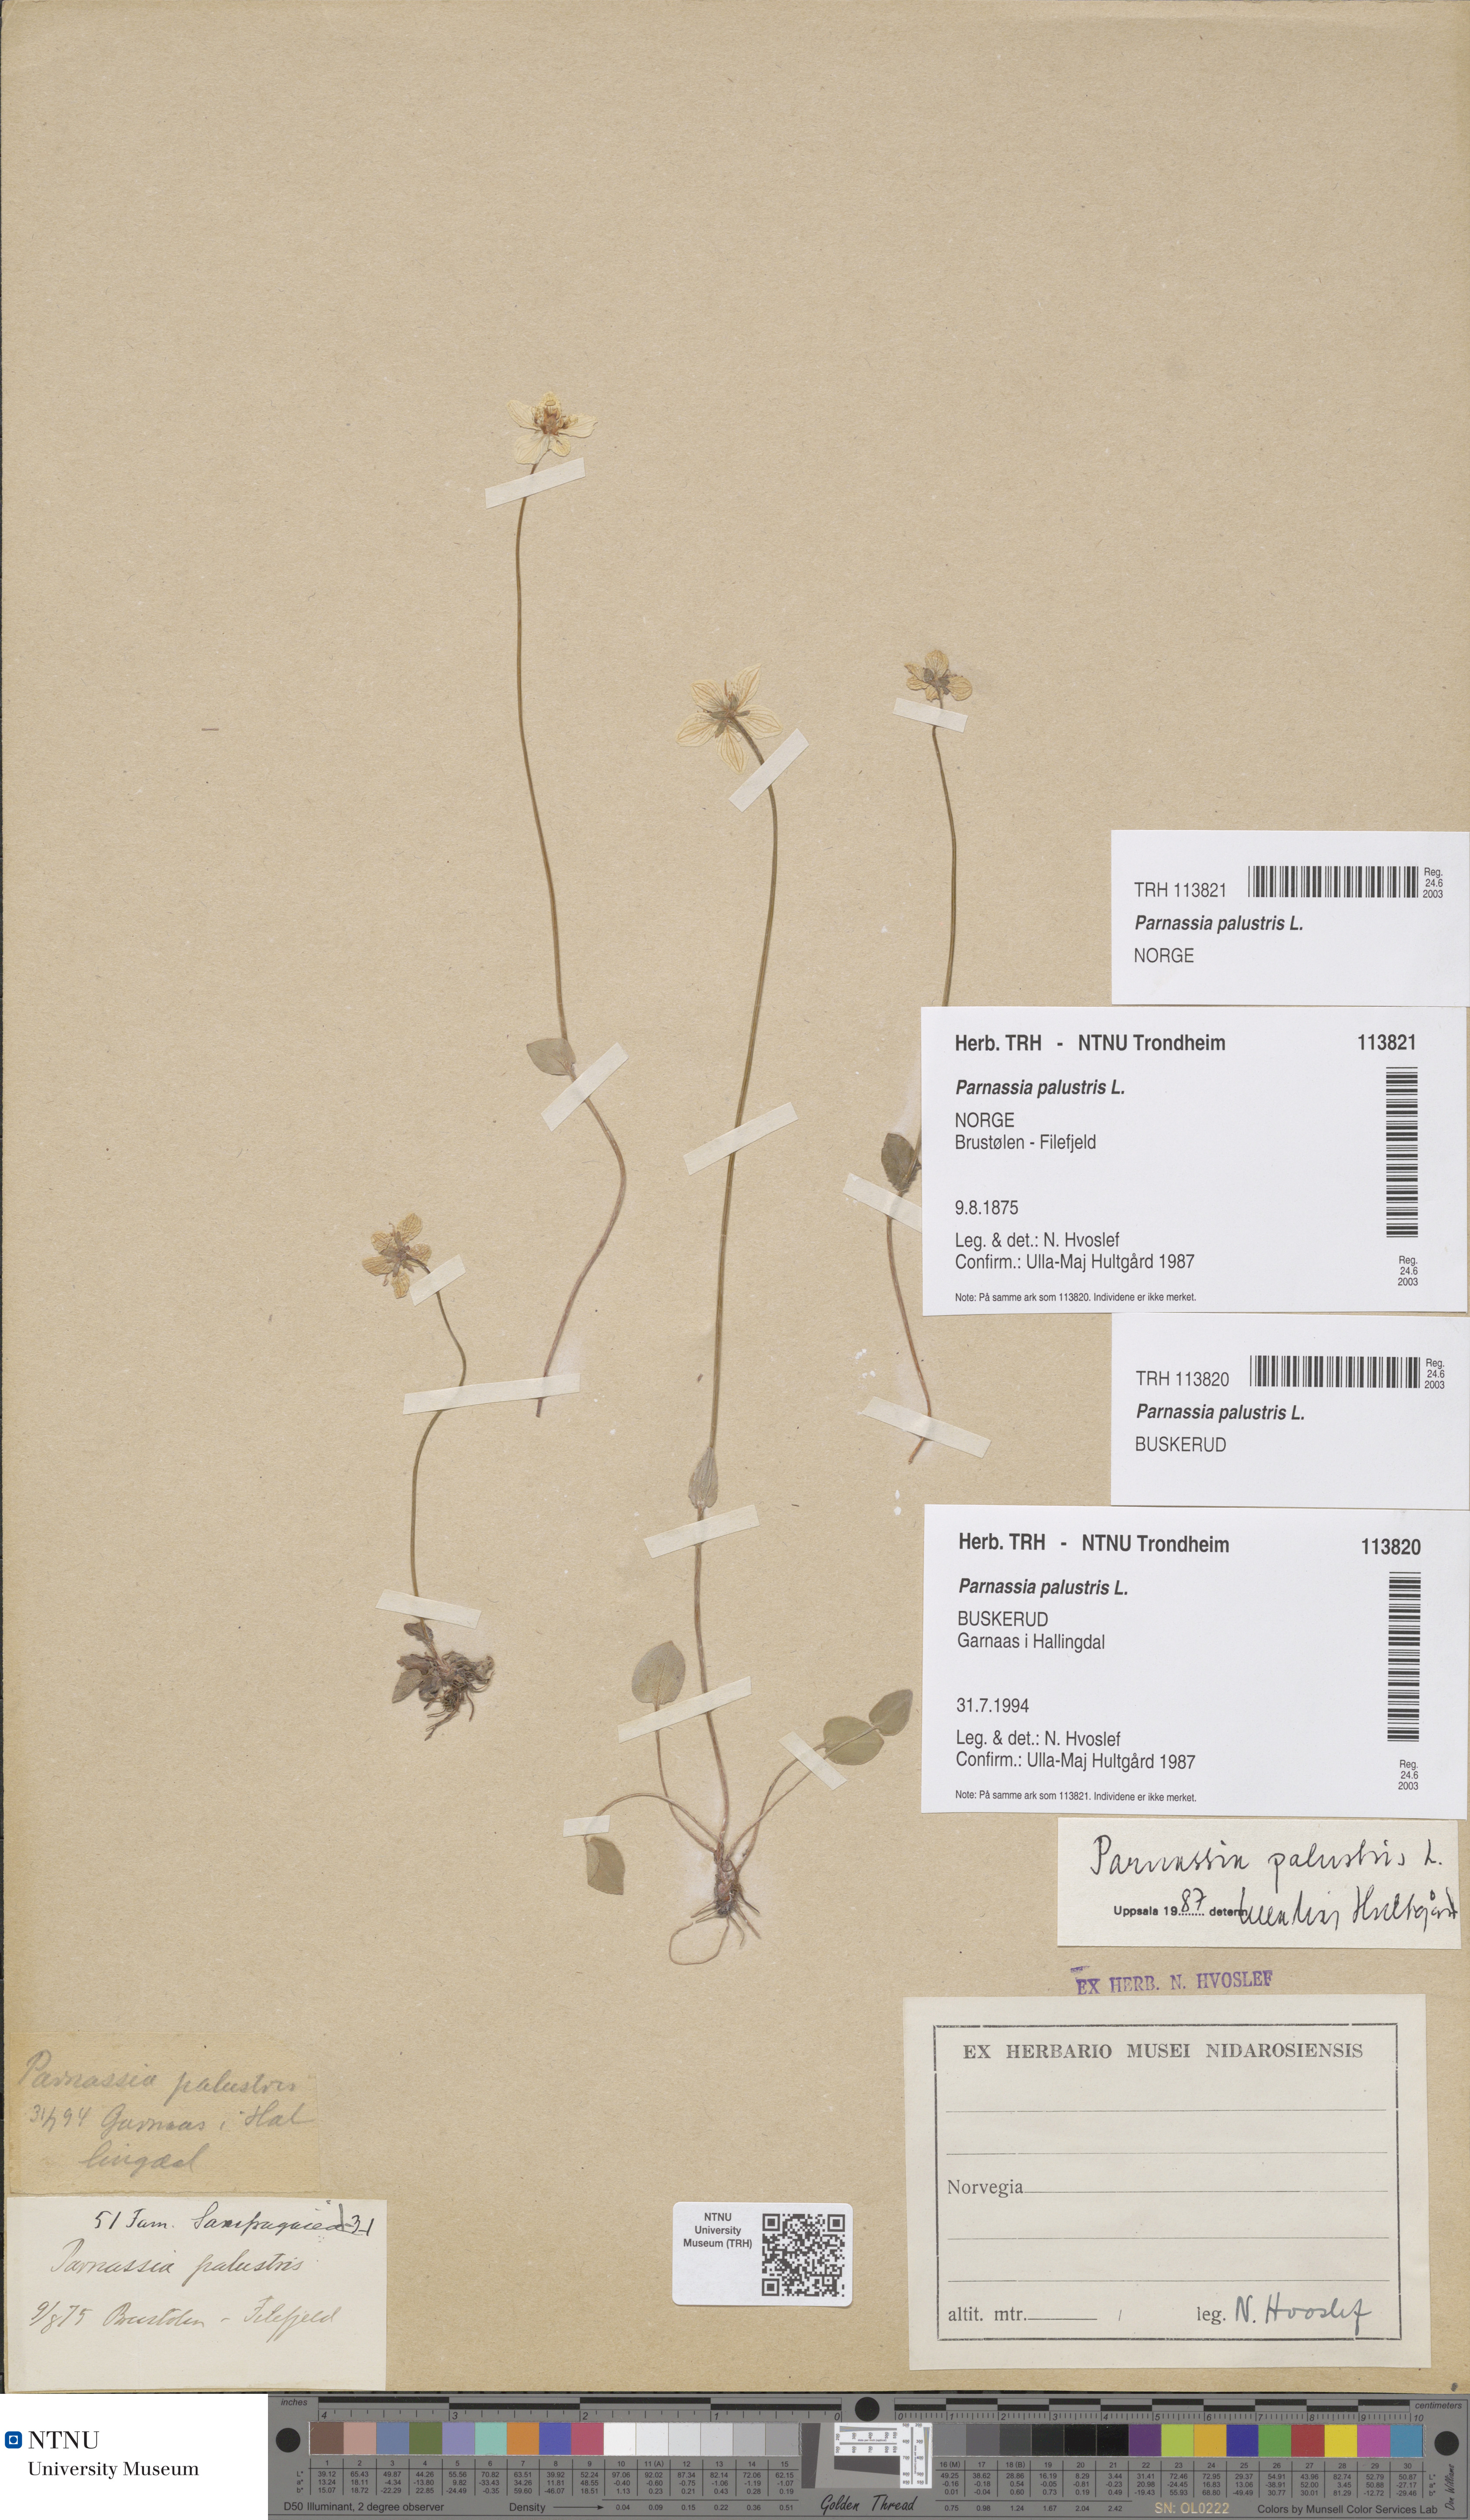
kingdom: Plantae
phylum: Tracheophyta
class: Magnoliopsida
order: Celastrales
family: Parnassiaceae
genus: Parnassia
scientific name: Parnassia palustris
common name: Grass-of-parnassus
